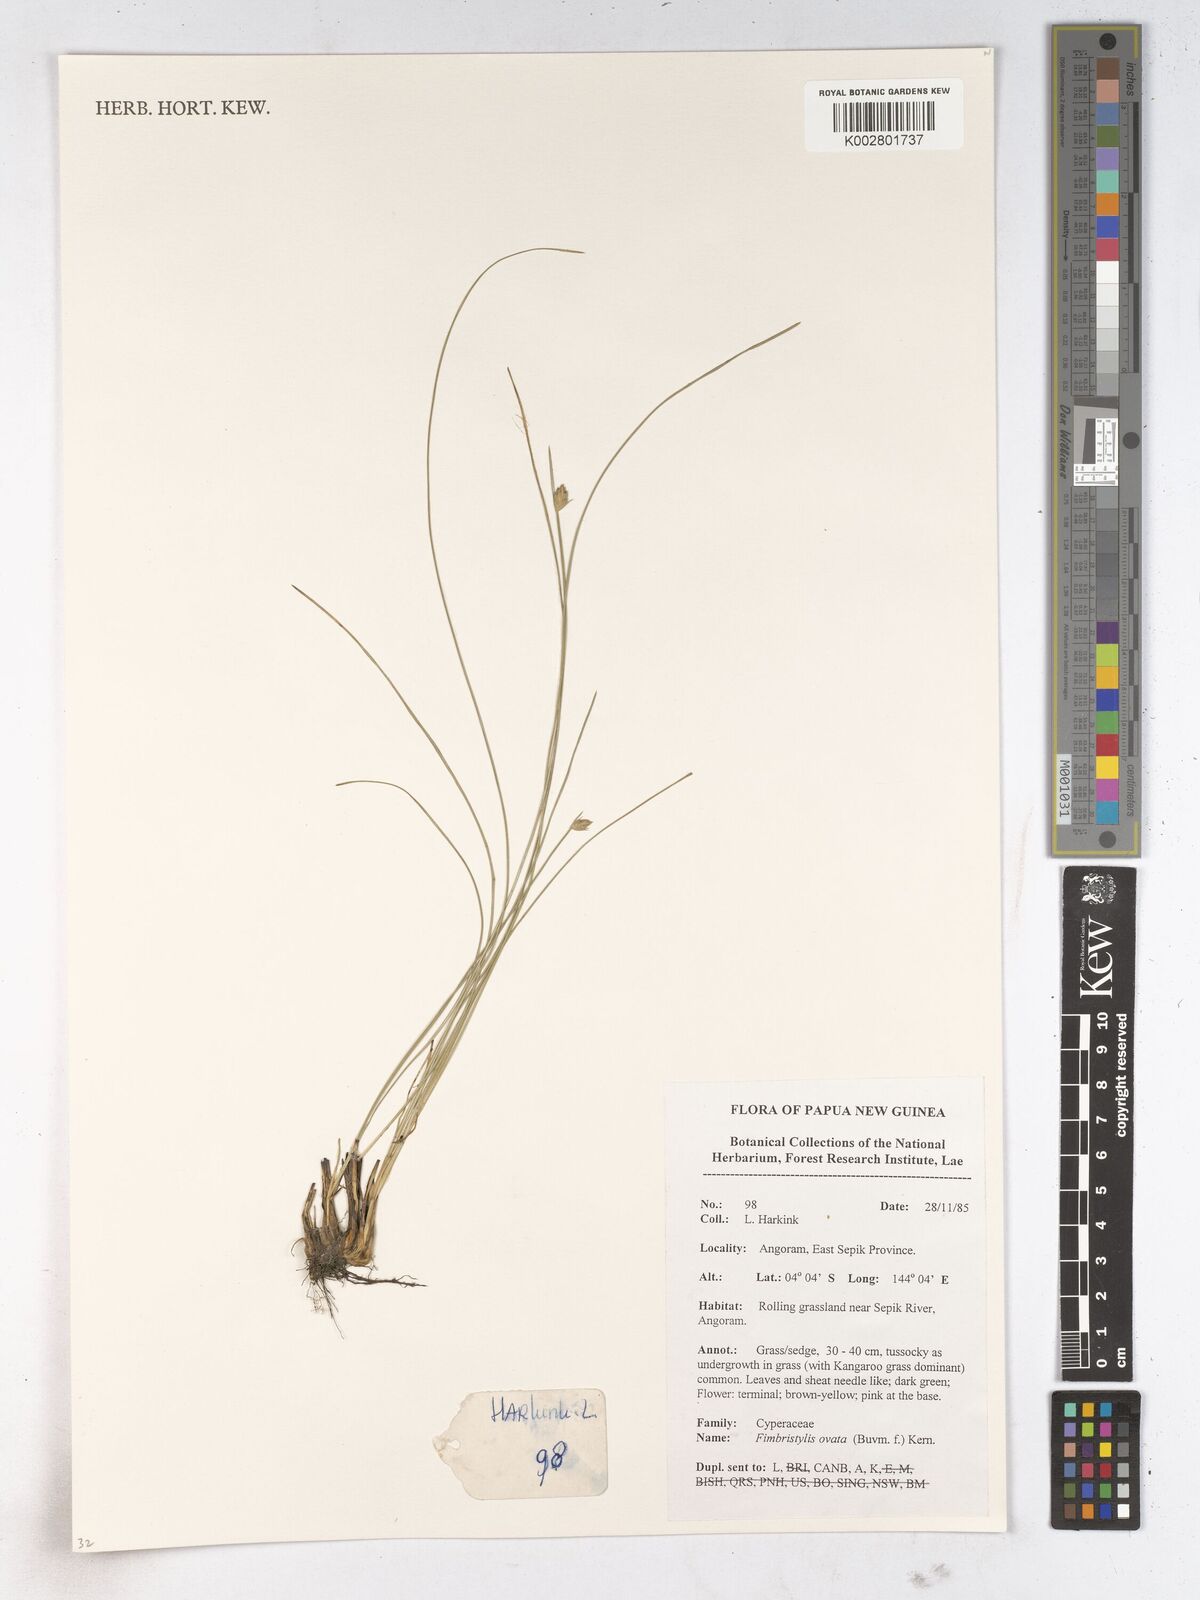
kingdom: Plantae
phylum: Tracheophyta
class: Liliopsida
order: Poales
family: Cyperaceae
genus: Abildgaardia
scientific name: Abildgaardia ovata
